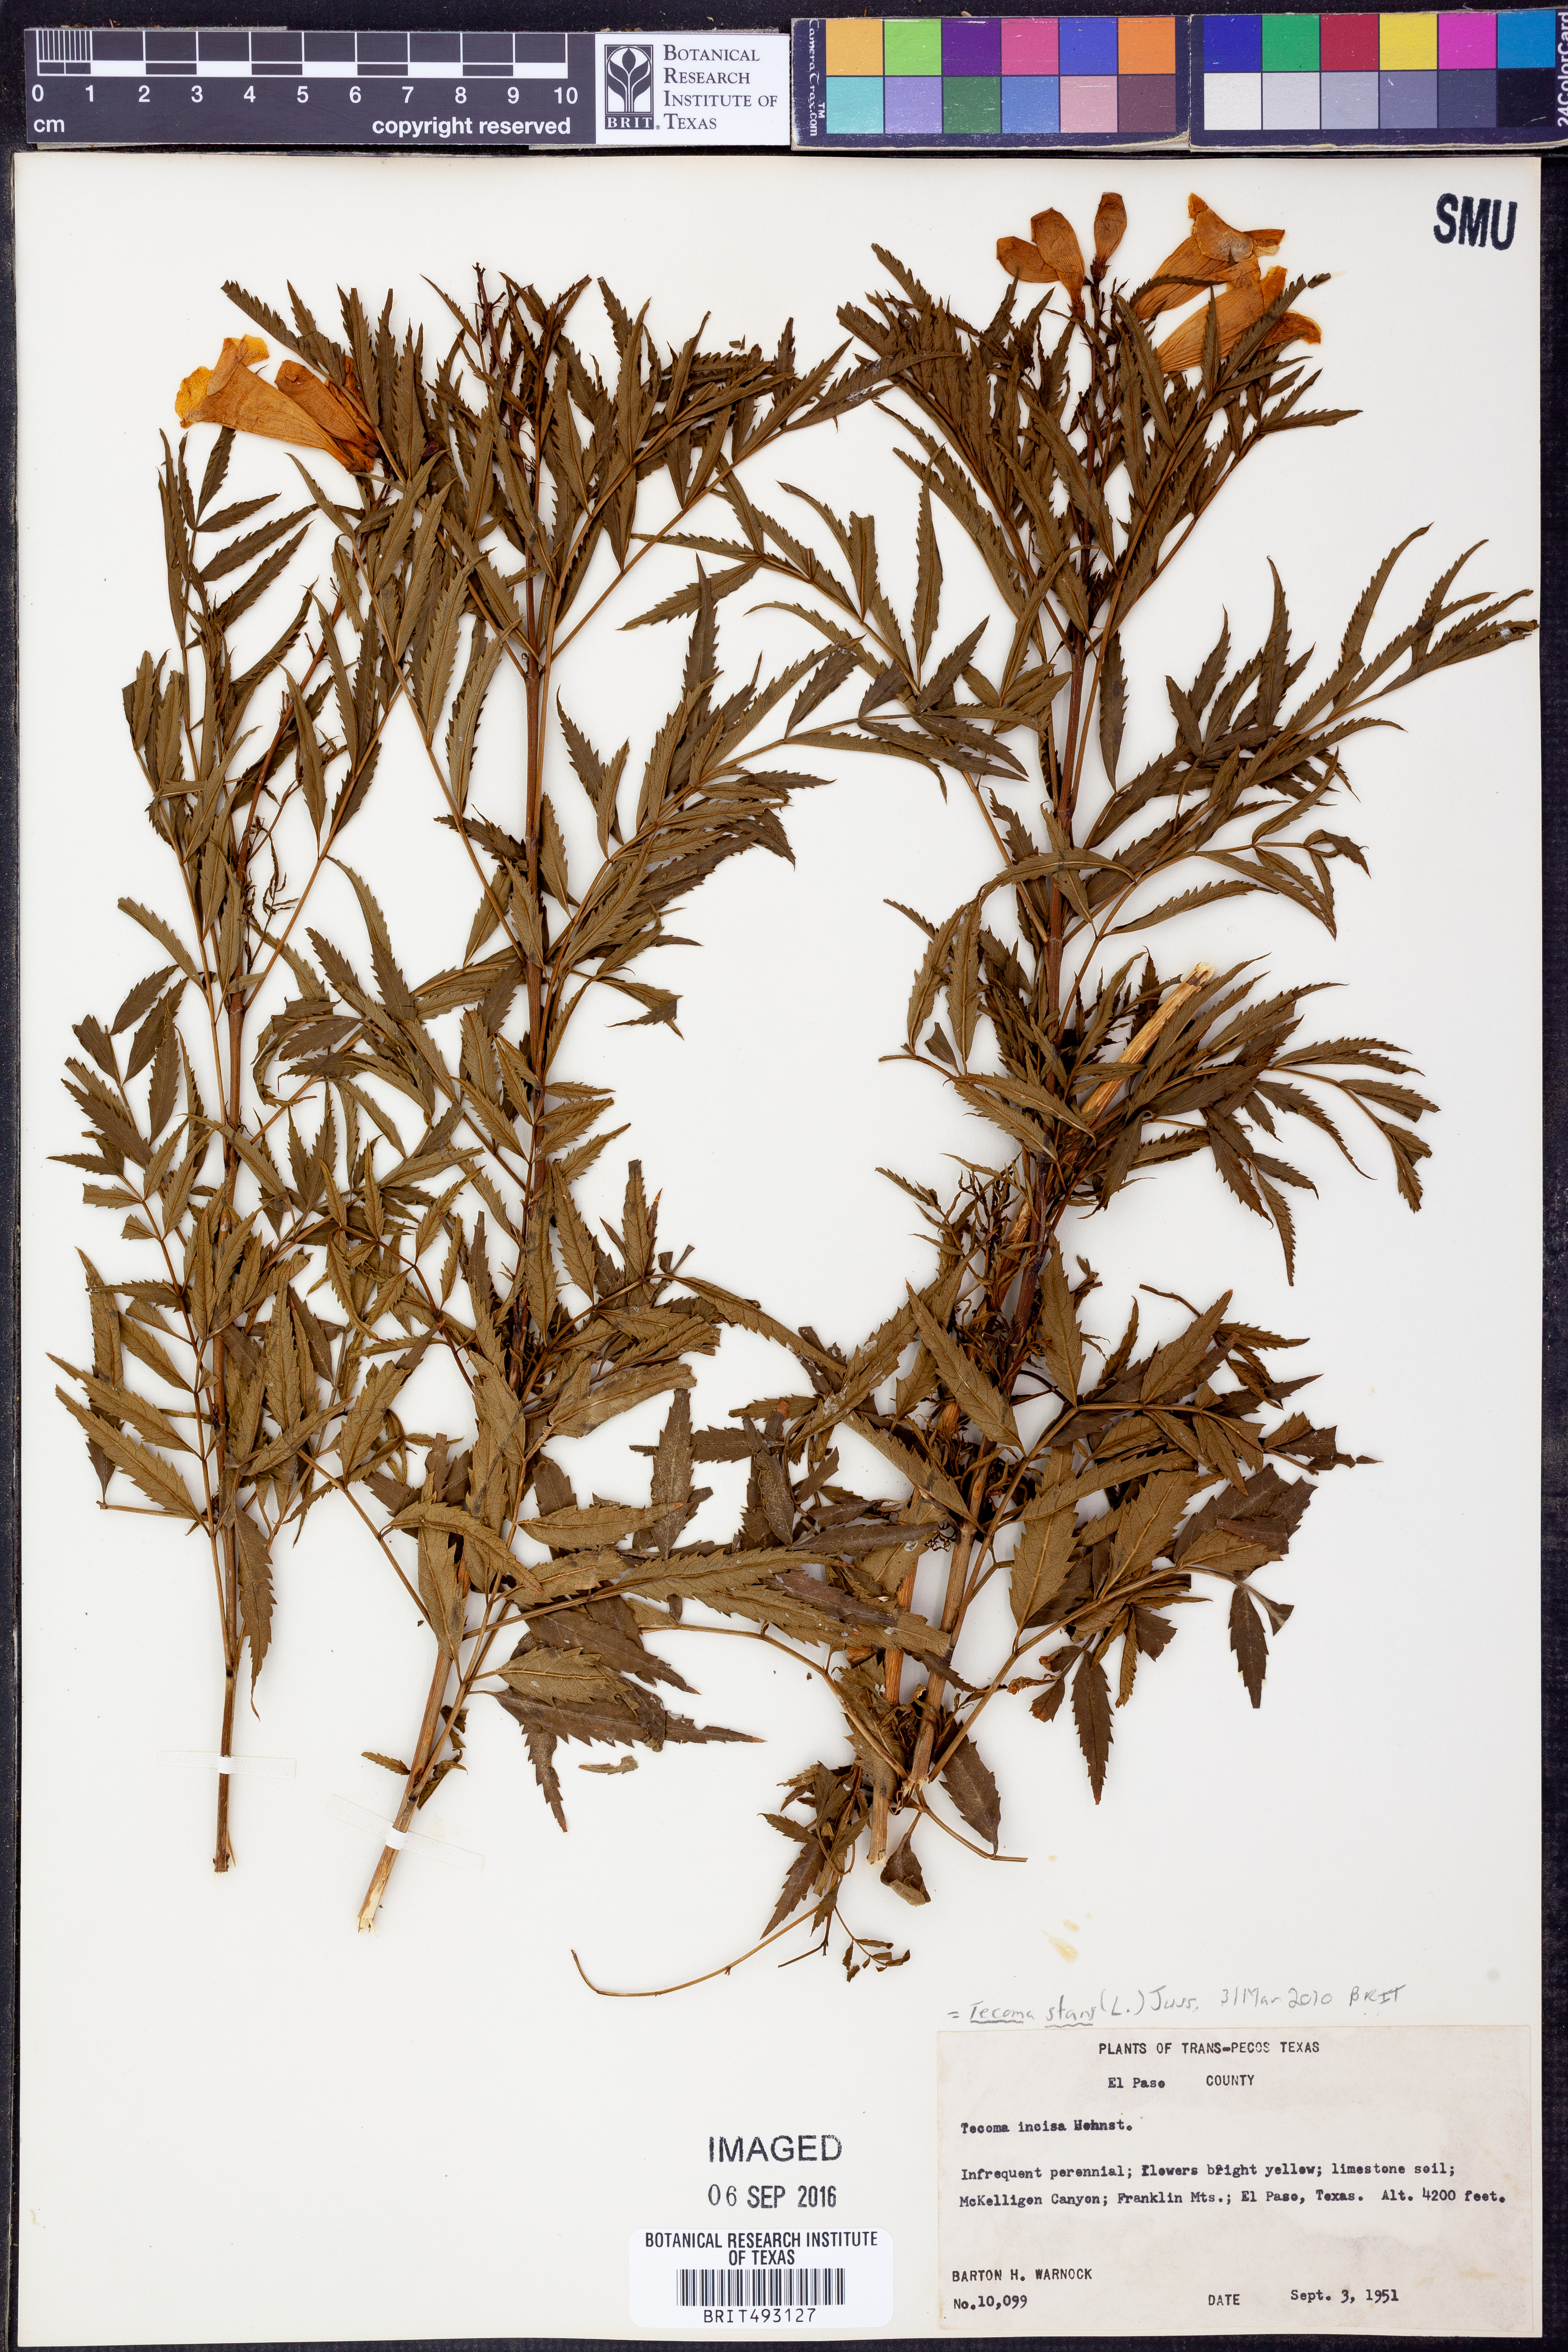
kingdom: Plantae
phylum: Tracheophyta
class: Magnoliopsida
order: Lamiales
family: Bignoniaceae
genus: Tecoma
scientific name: Tecoma stans
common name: Yellow trumpetbush
